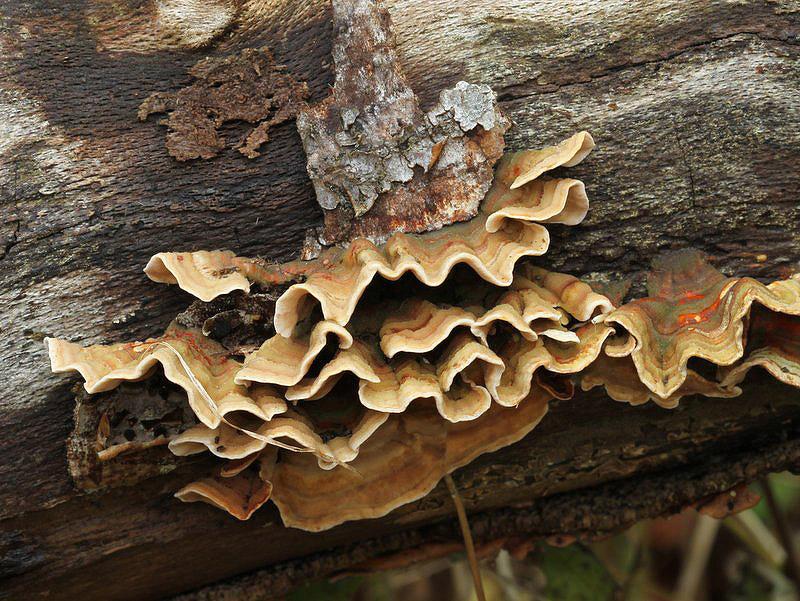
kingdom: Fungi
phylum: Basidiomycota
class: Agaricomycetes
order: Russulales
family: Stereaceae
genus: Stereum
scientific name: Stereum subtomentosum
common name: smuk lædersvamp
